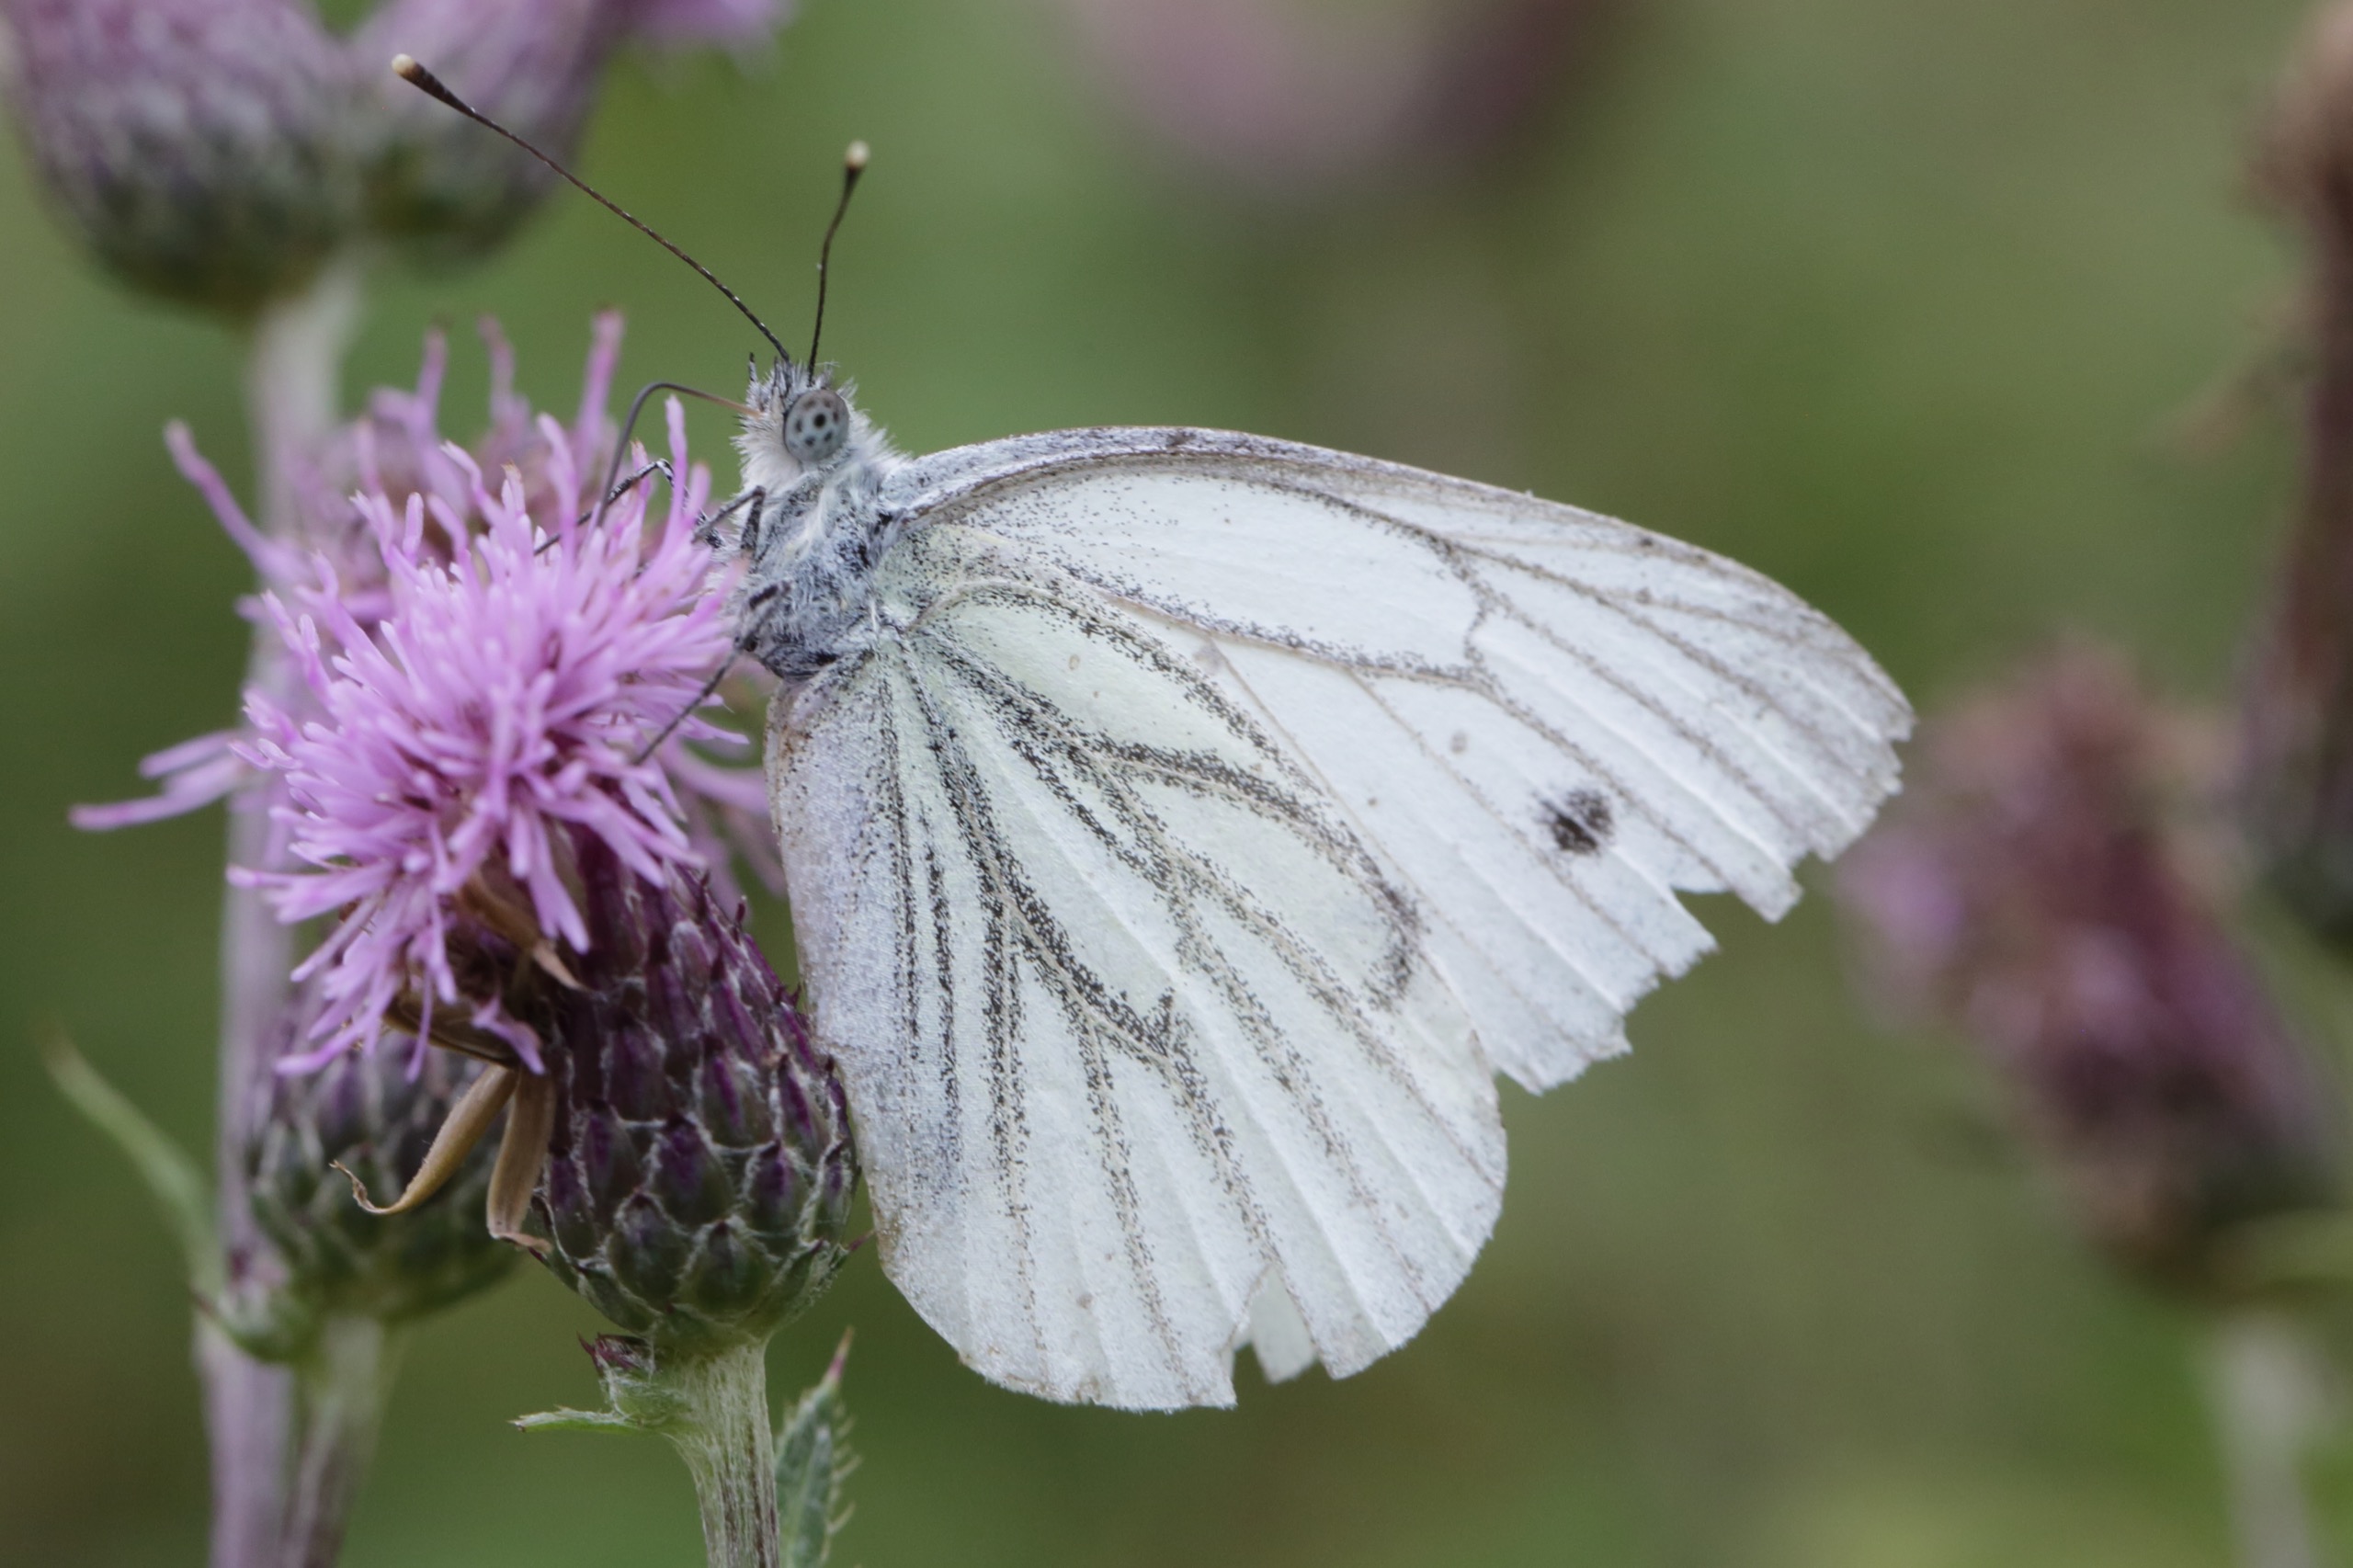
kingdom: Animalia
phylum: Arthropoda
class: Insecta
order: Lepidoptera
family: Pieridae
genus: Pieris
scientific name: Pieris napi
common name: Grønåret kålsommerfugl
